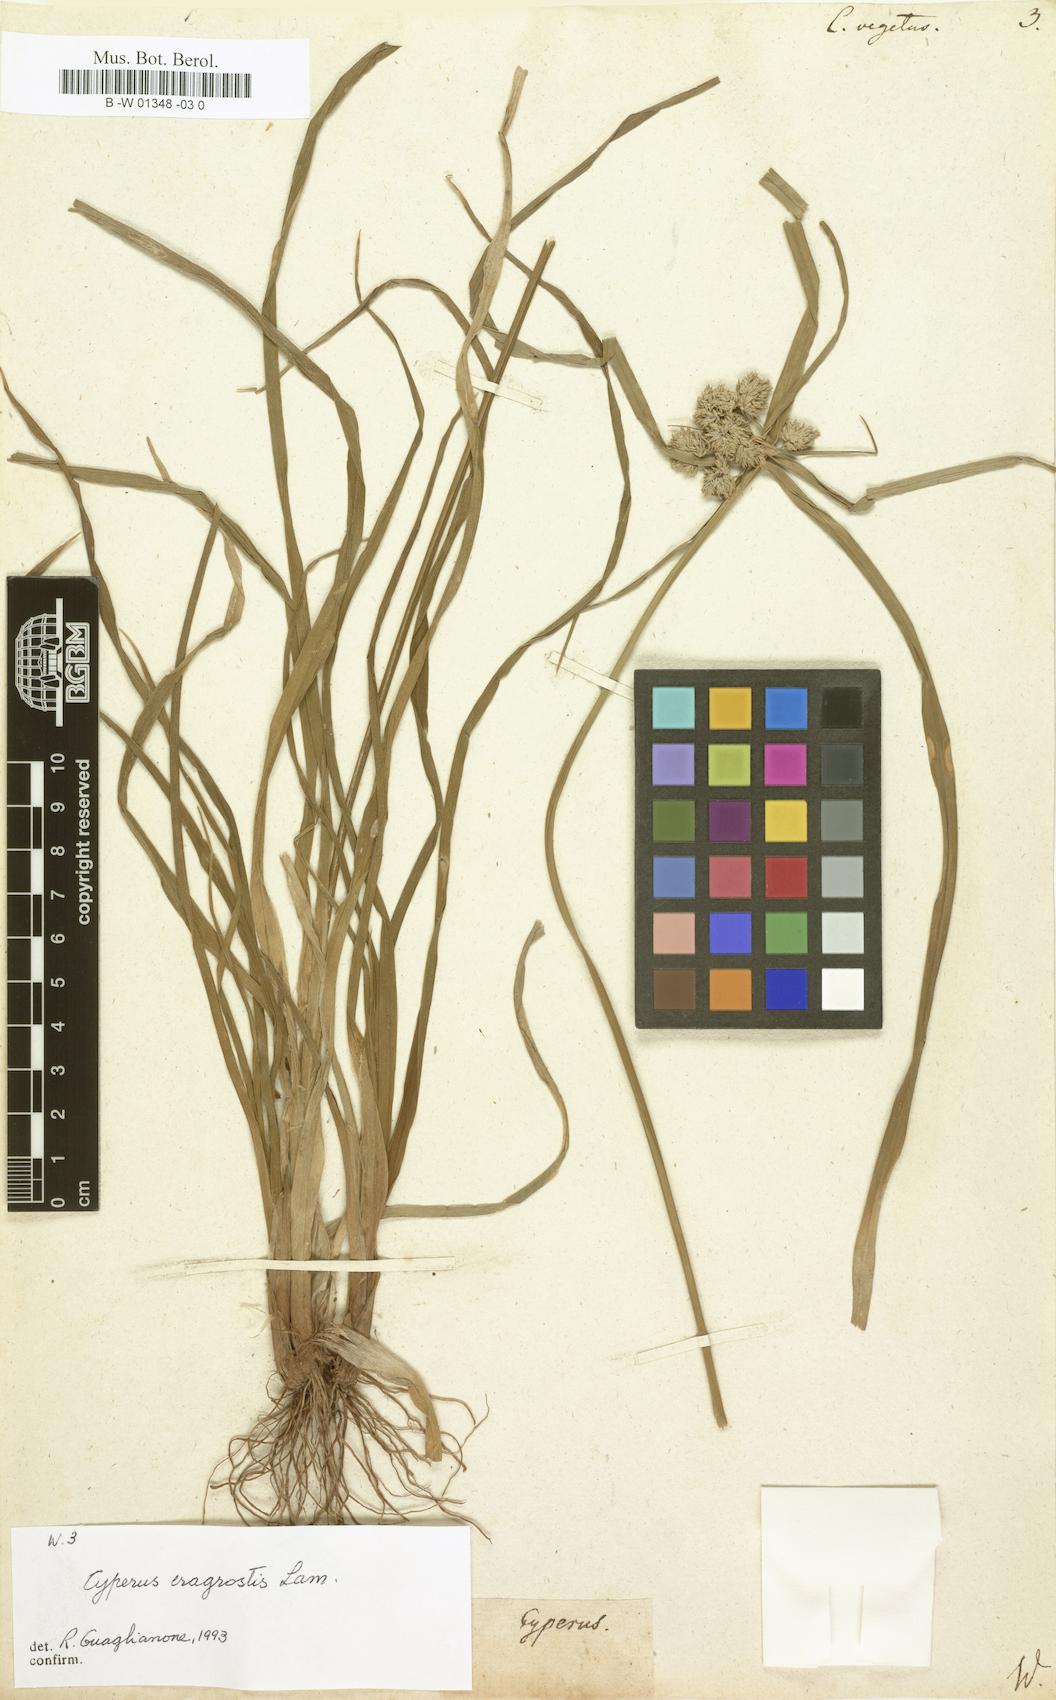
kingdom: Plantae
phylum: Tracheophyta
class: Liliopsida
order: Poales
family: Cyperaceae
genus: Cyperus
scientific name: Cyperus vegetus
